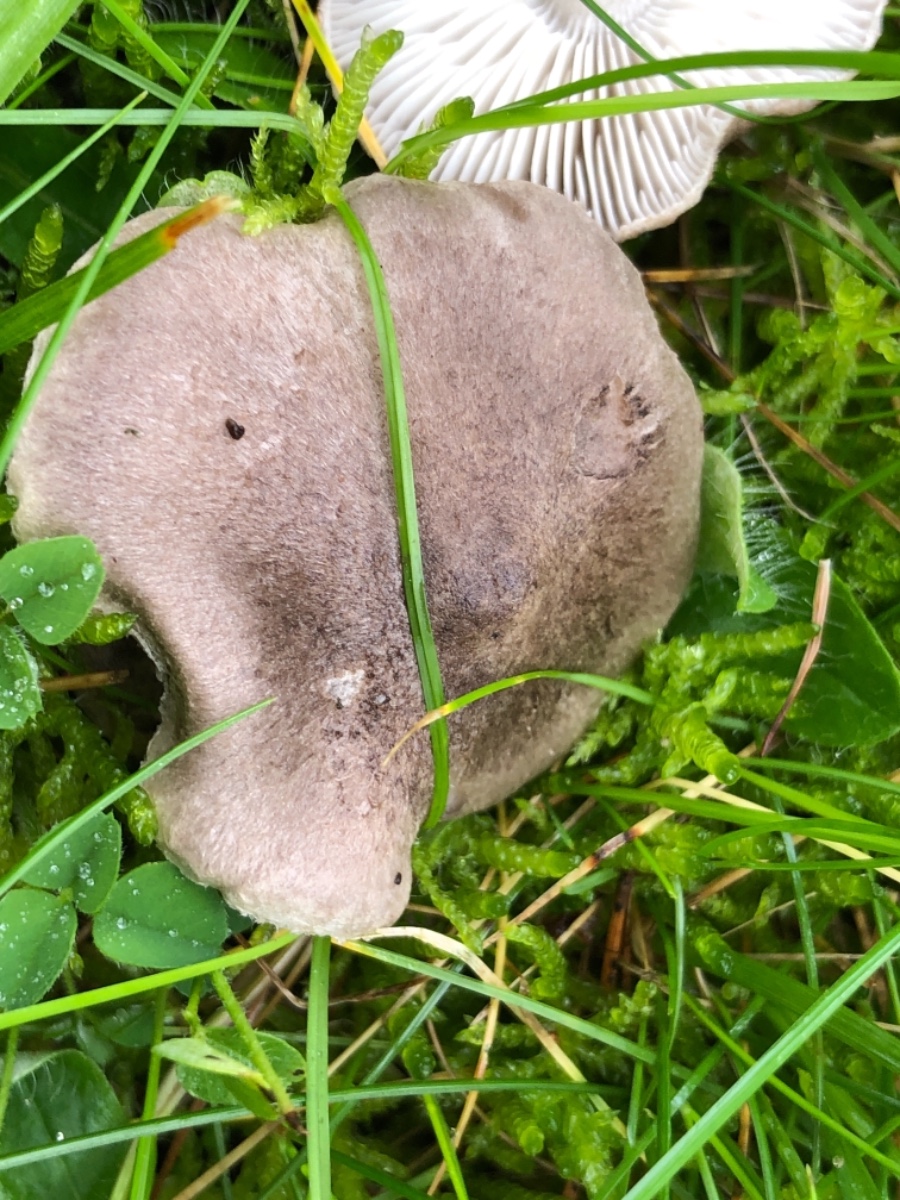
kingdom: Fungi
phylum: Basidiomycota
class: Agaricomycetes
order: Agaricales
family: Tricholomataceae
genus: Tricholoma
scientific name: Tricholoma terreum
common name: jordfarvet ridderhat
